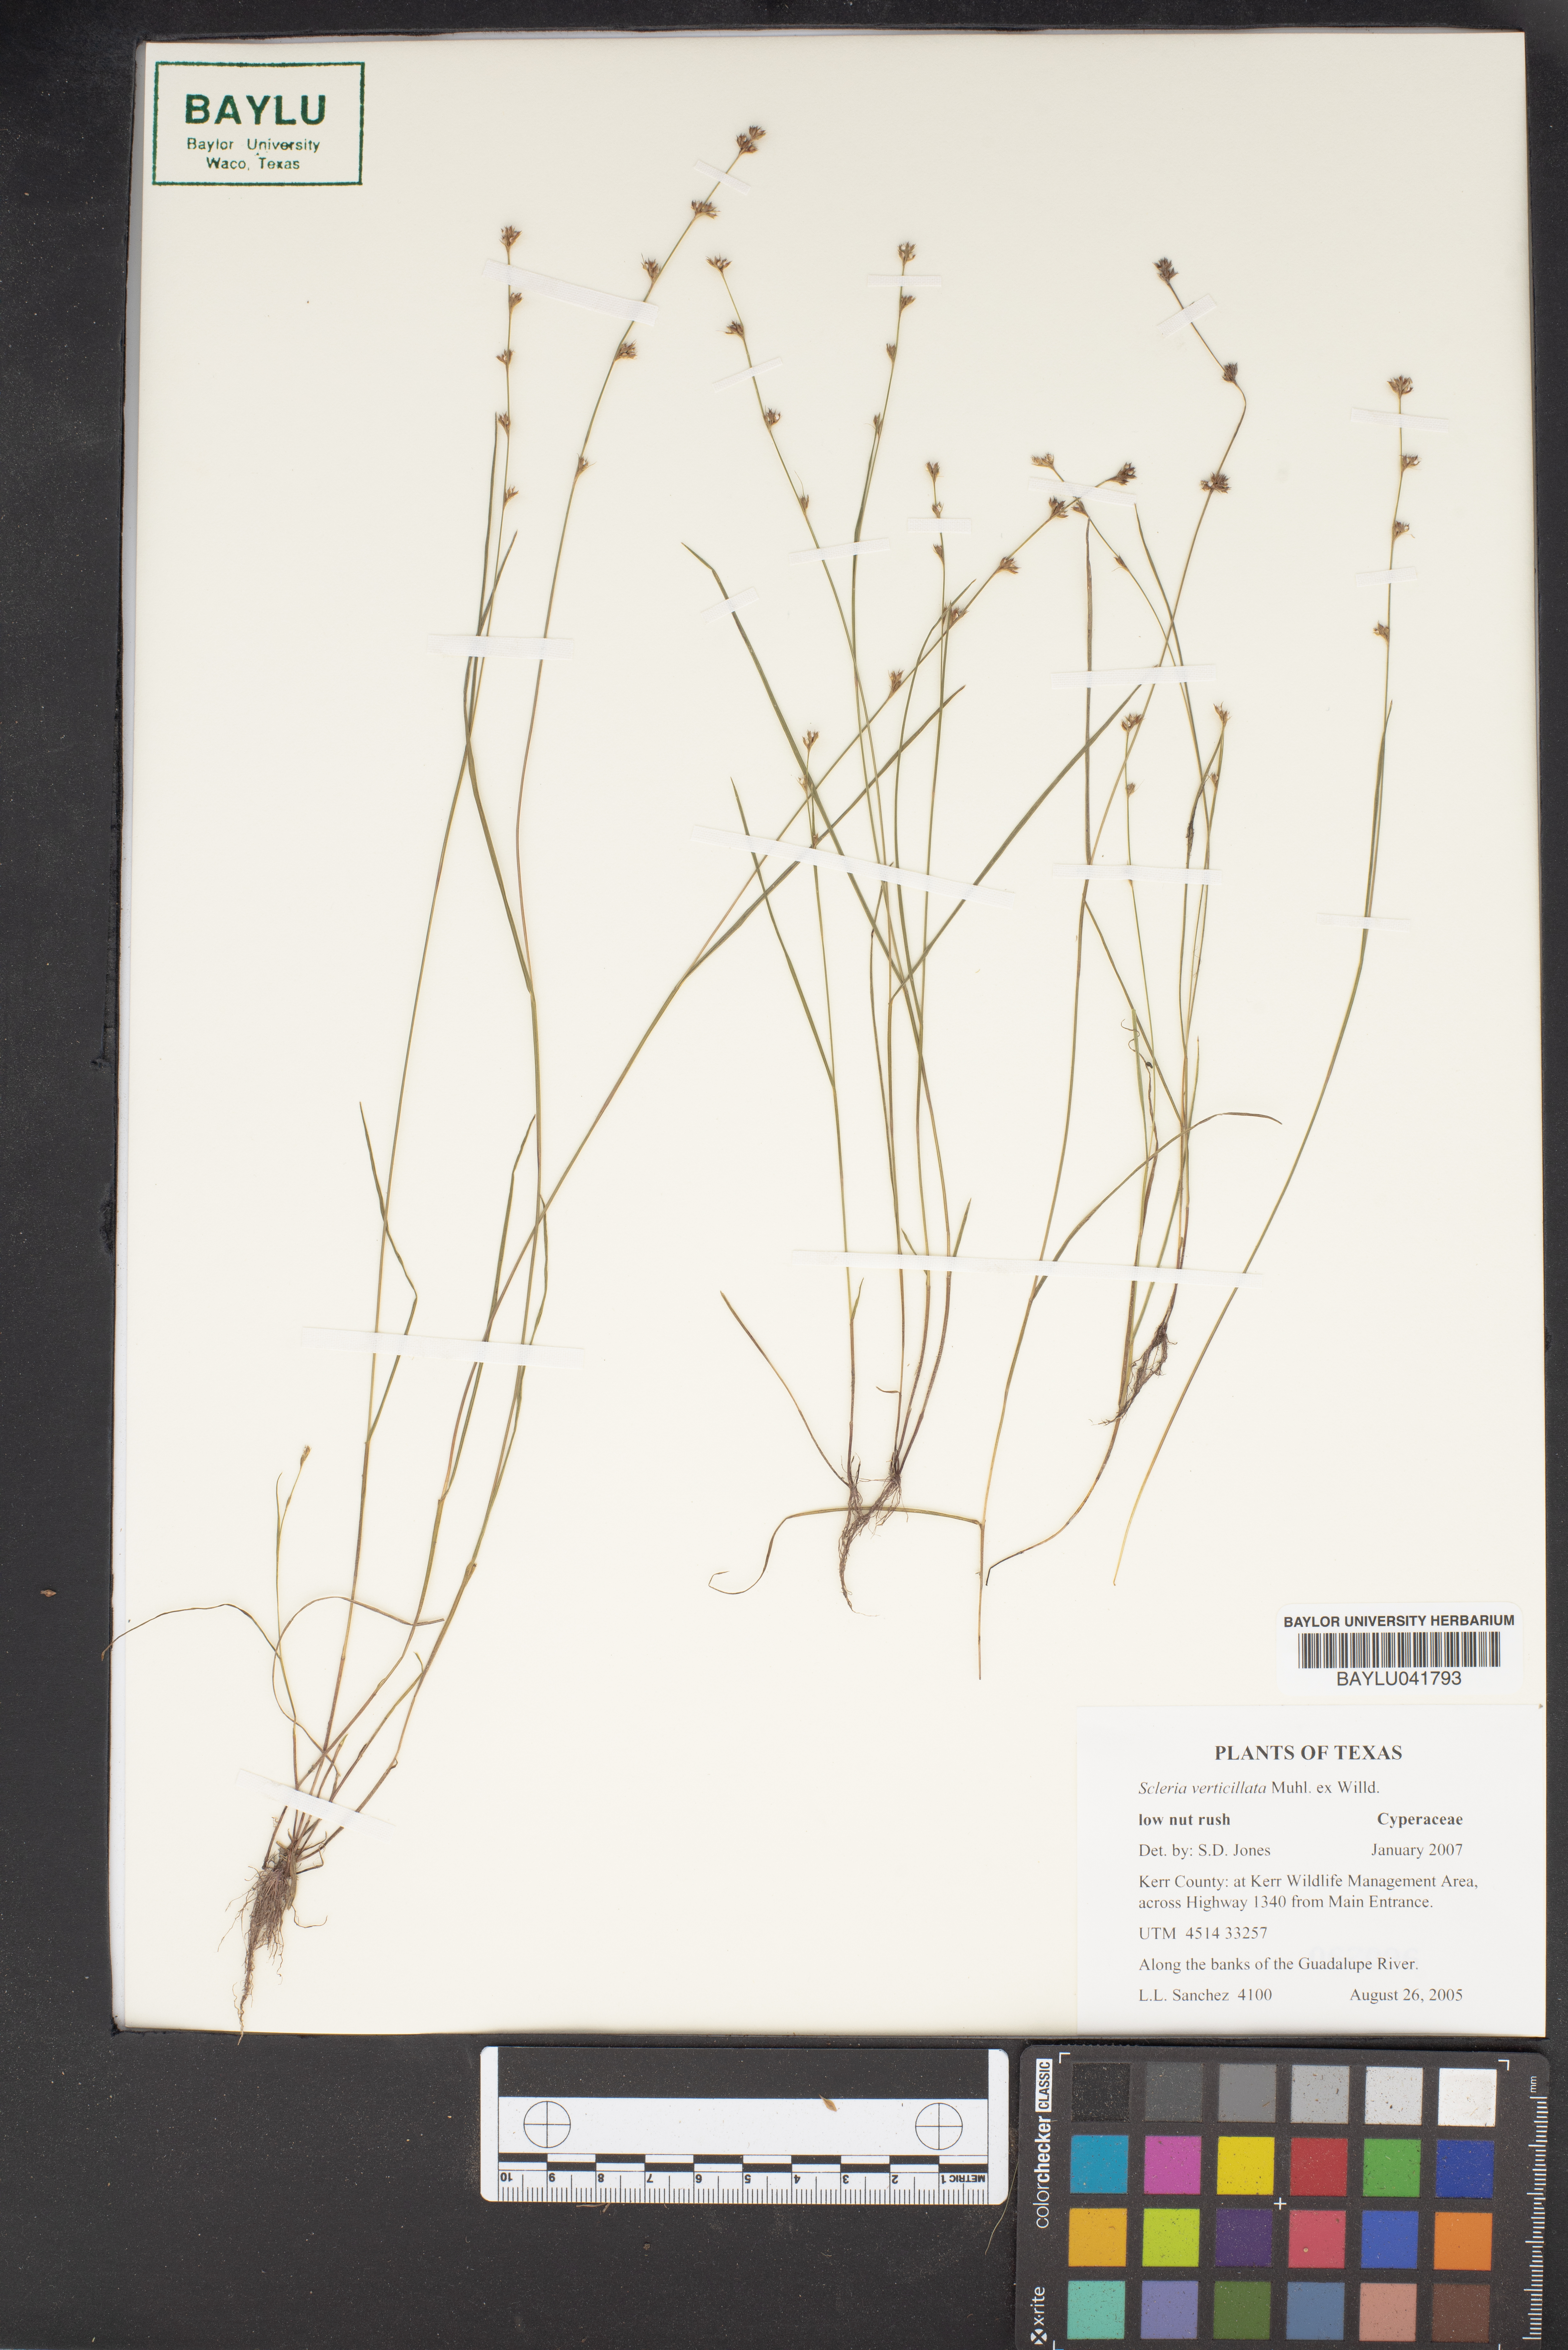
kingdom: Plantae
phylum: Tracheophyta
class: Liliopsida
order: Poales
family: Cyperaceae
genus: Scleria
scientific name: Scleria verticillata
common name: Low nutrush
